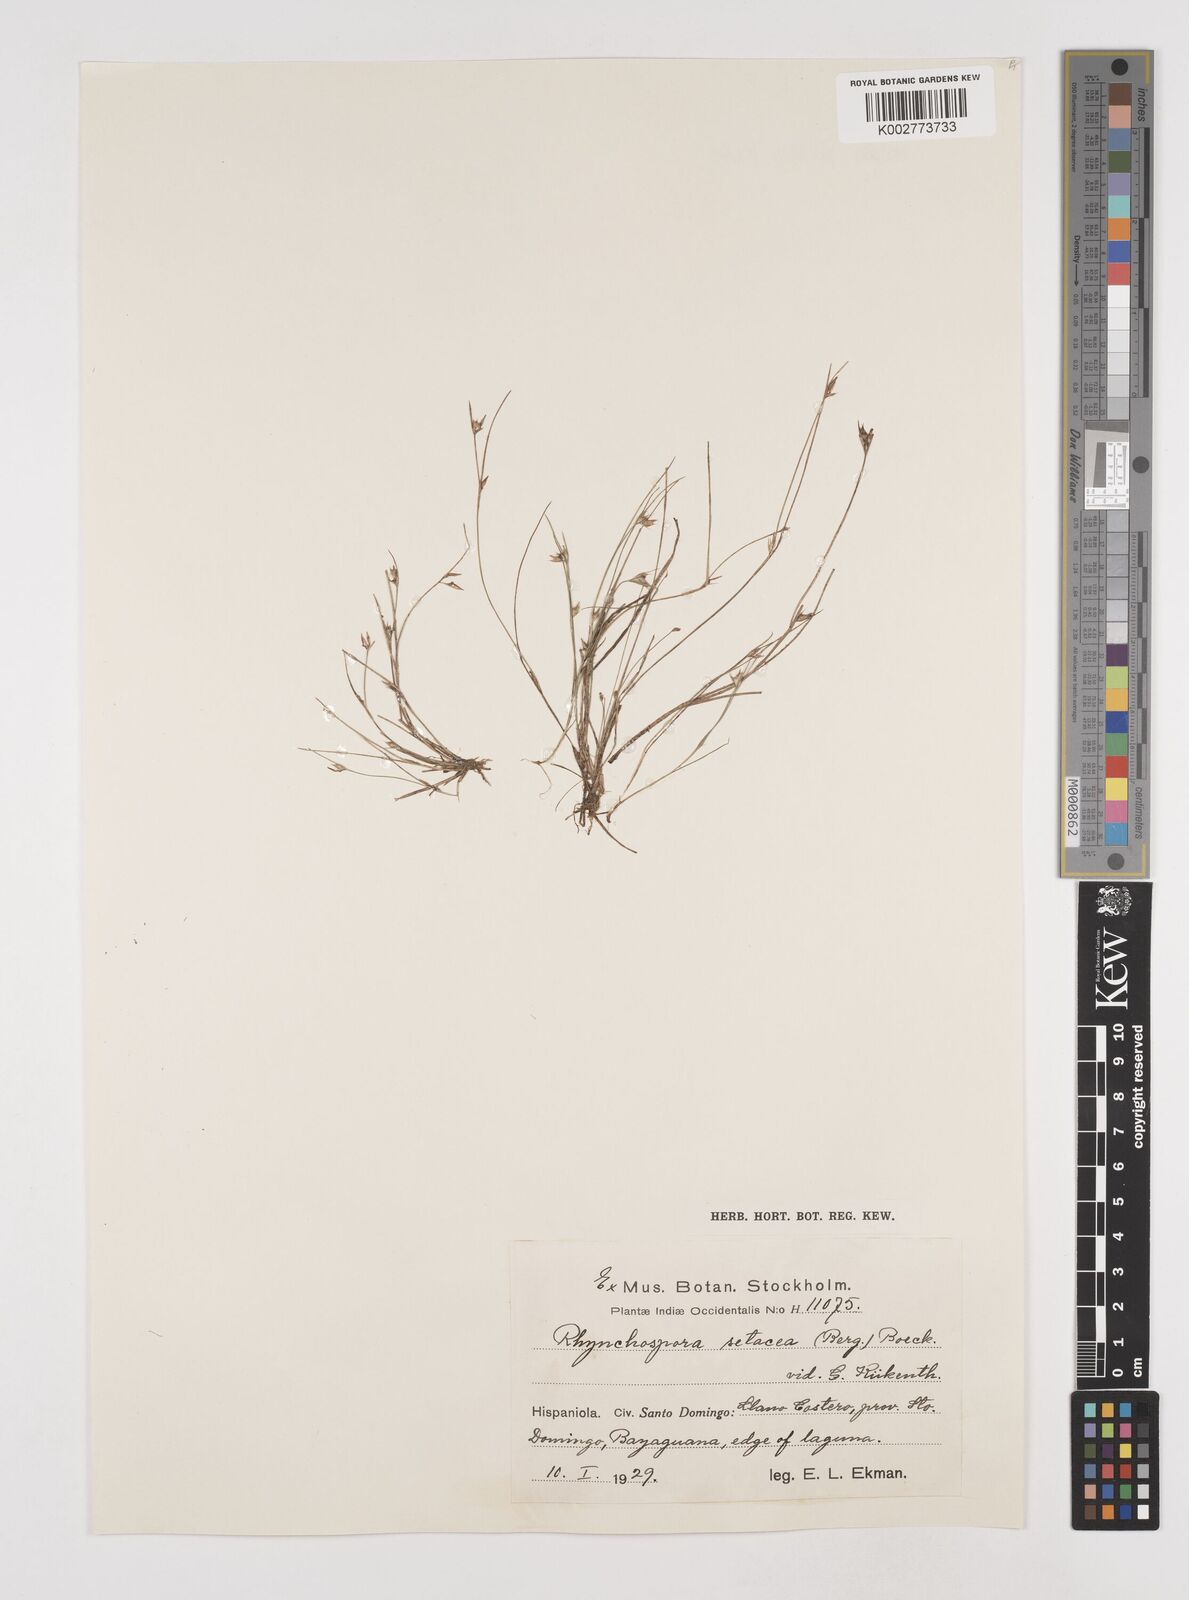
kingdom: Plantae
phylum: Tracheophyta
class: Liliopsida
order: Poales
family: Cyperaceae
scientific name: Cyperaceae
